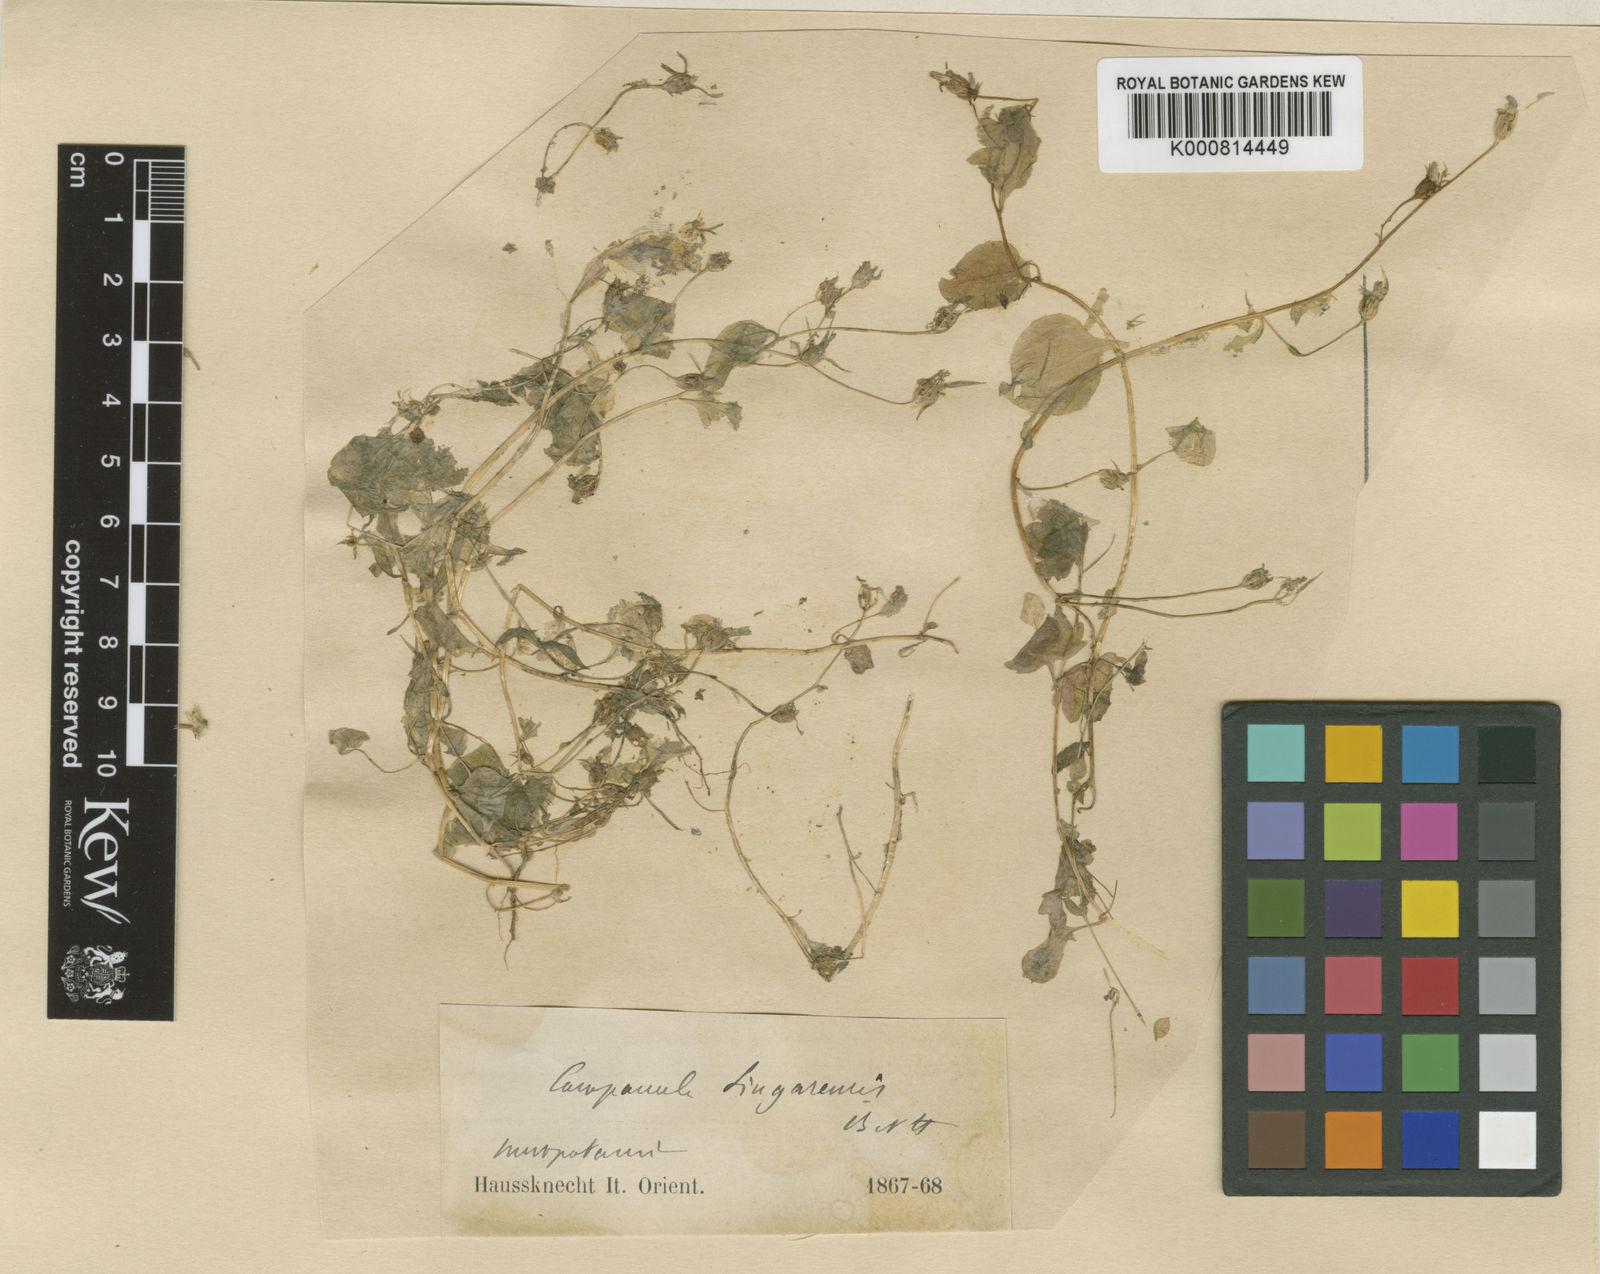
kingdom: Plantae
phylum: Tracheophyta
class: Magnoliopsida
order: Asterales
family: Campanulaceae
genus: Campanula
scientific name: Campanula flaccidula
